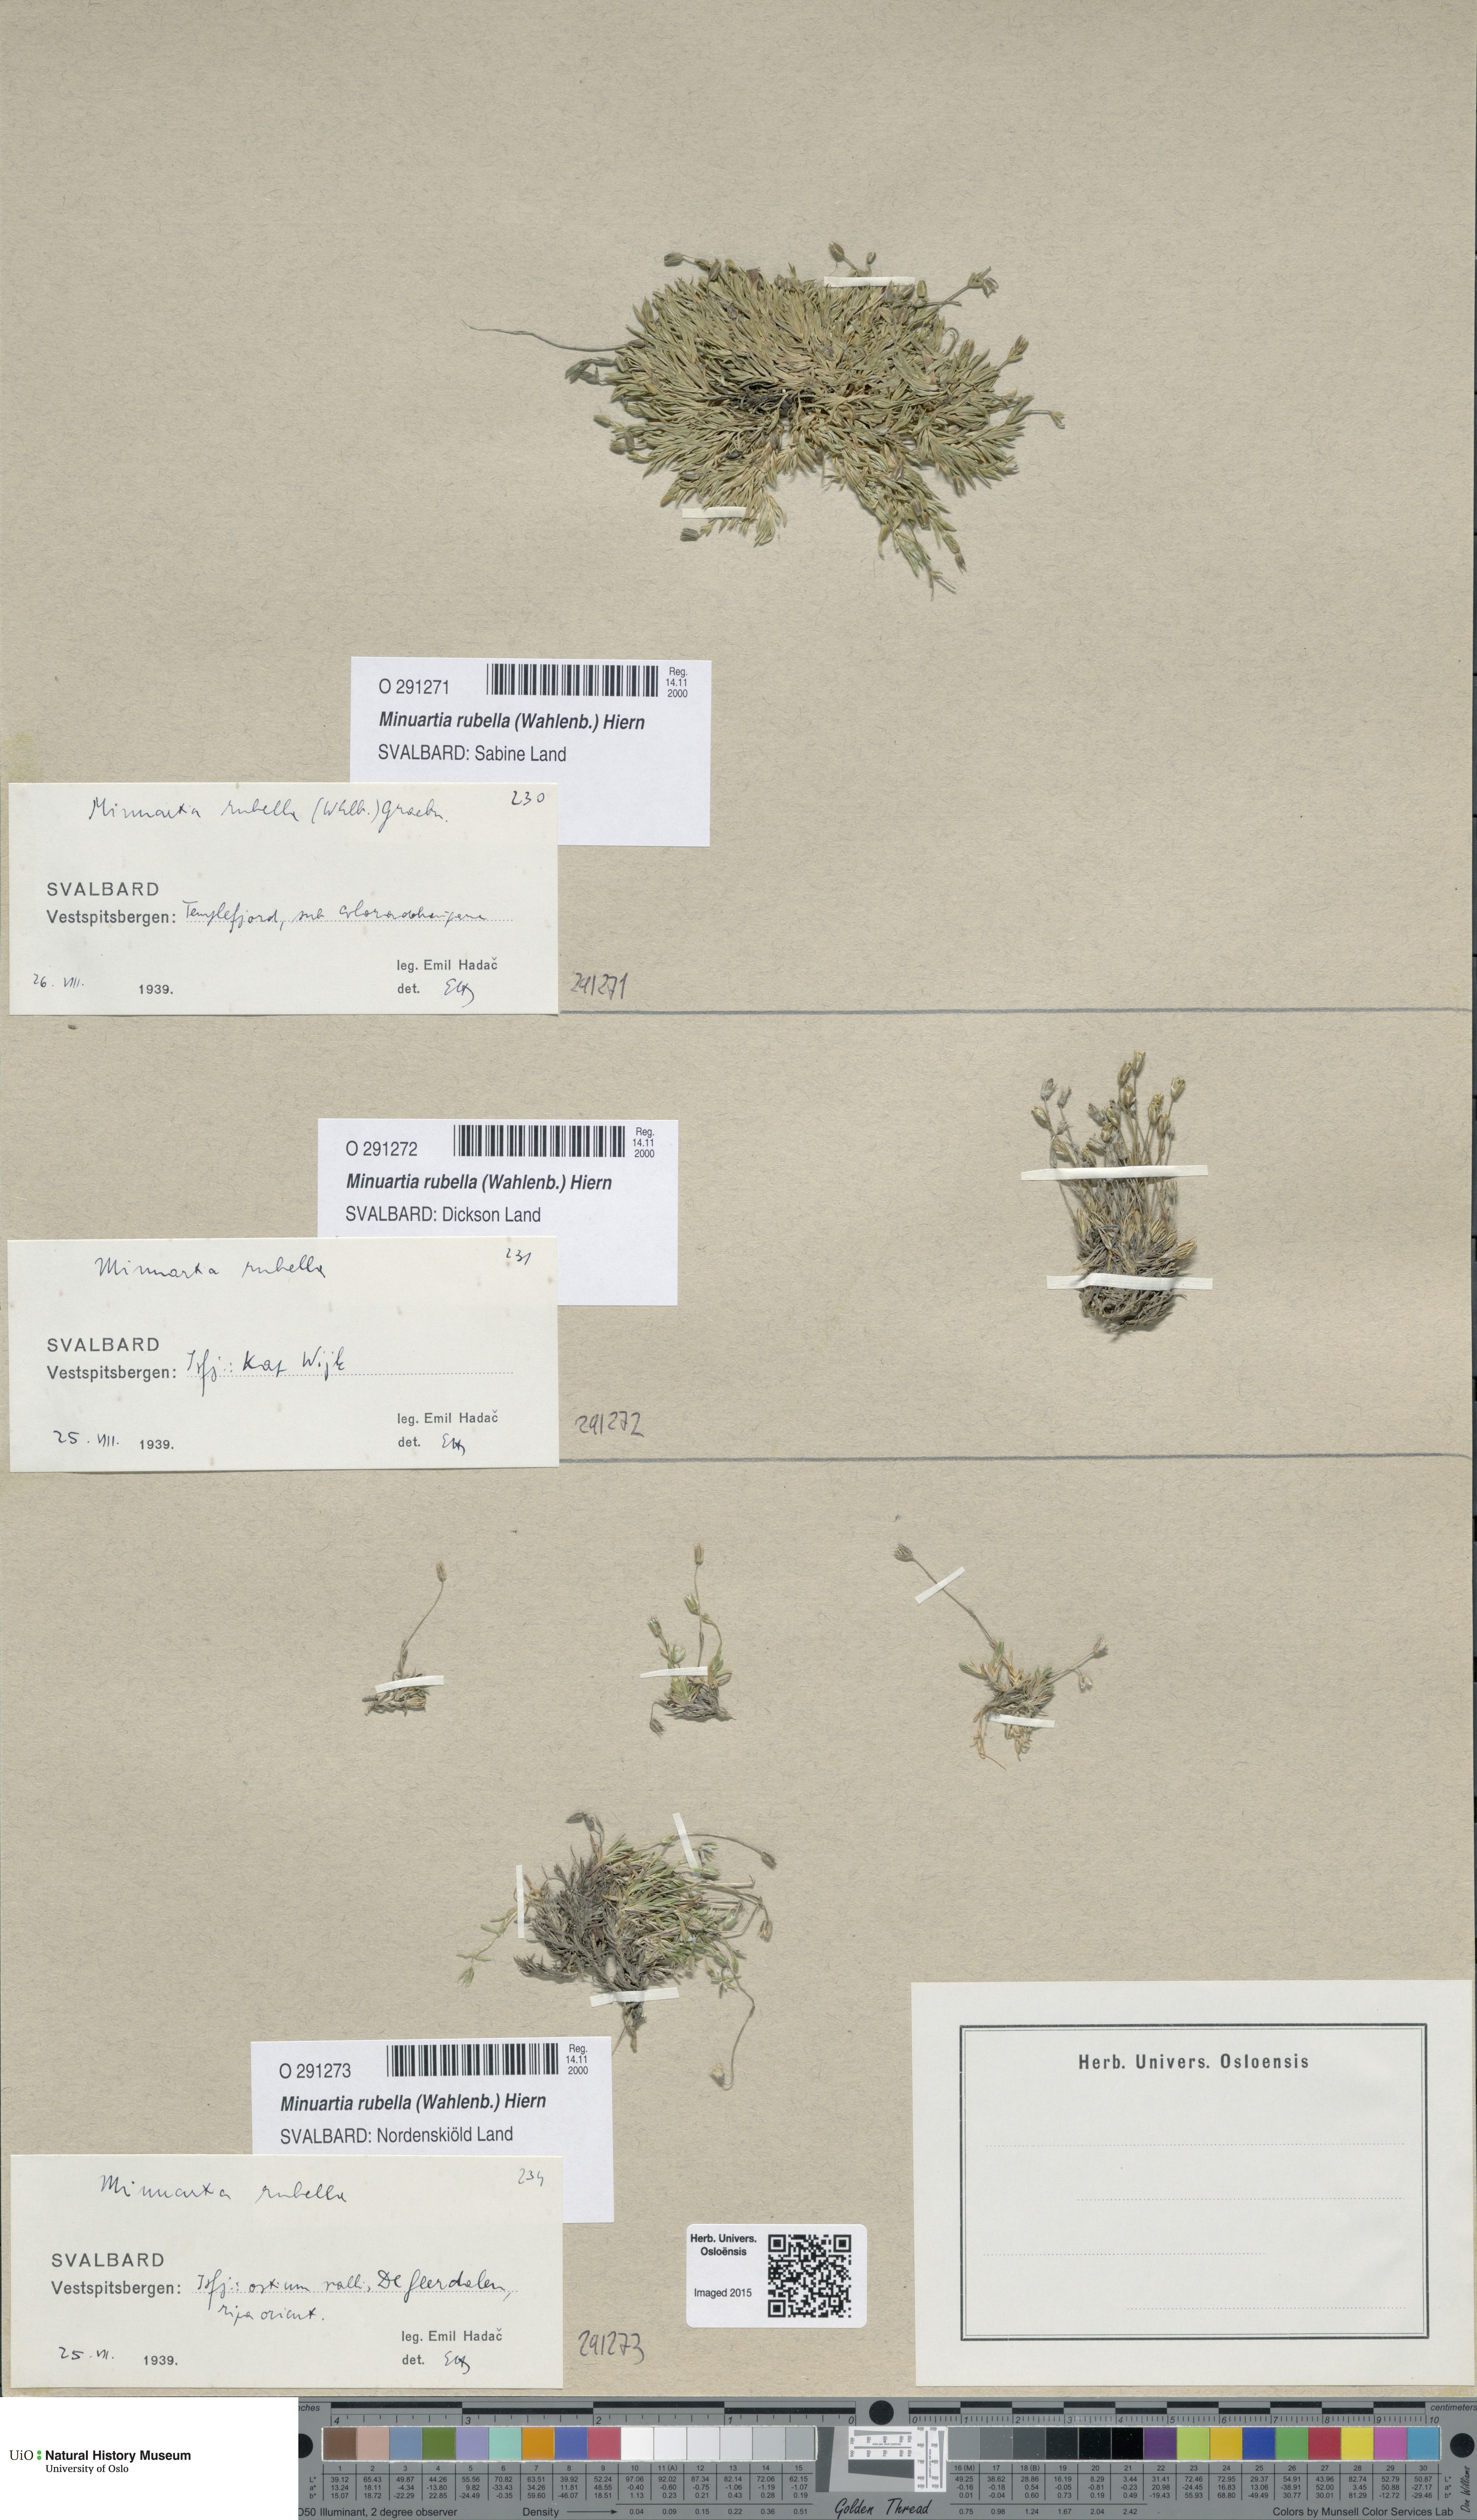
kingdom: Plantae
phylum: Tracheophyta
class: Magnoliopsida
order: Caryophyllales
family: Caryophyllaceae
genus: Sabulina
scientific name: Sabulina rubella
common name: Beautiful sandwort
